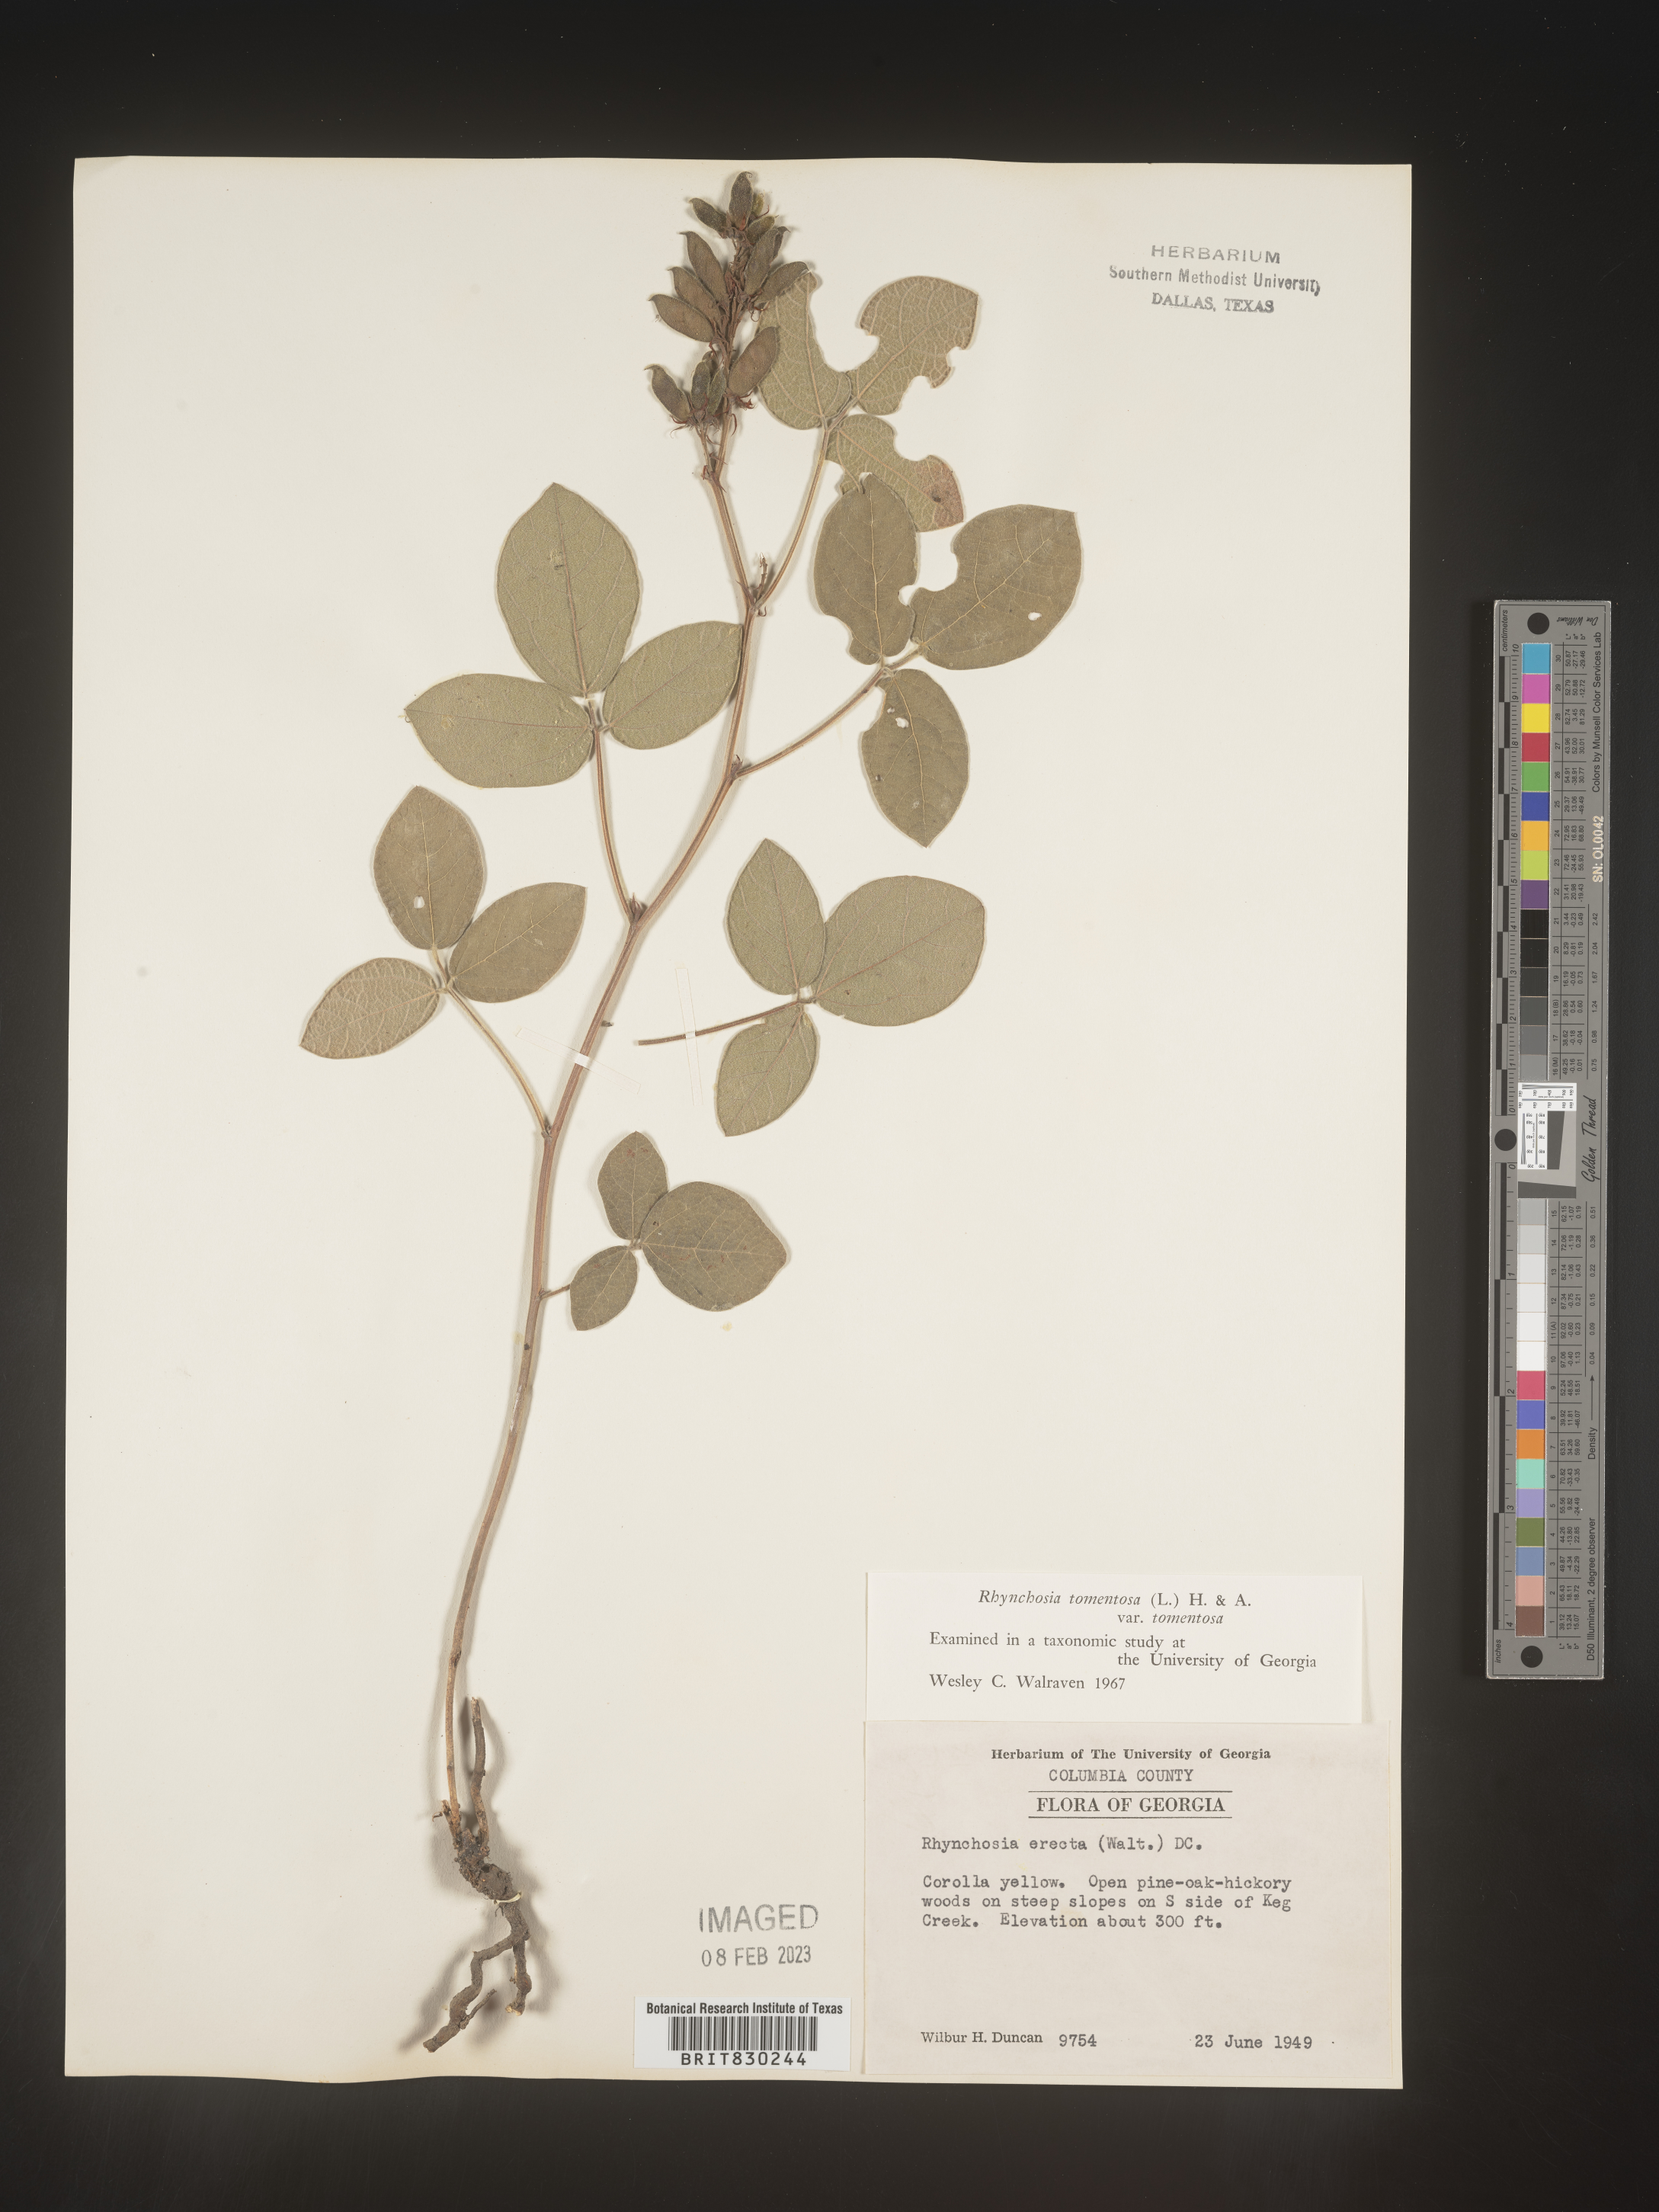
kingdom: Plantae
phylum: Tracheophyta
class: Magnoliopsida
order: Fabales
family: Fabaceae
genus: Rhynchosia
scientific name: Rhynchosia rothii
